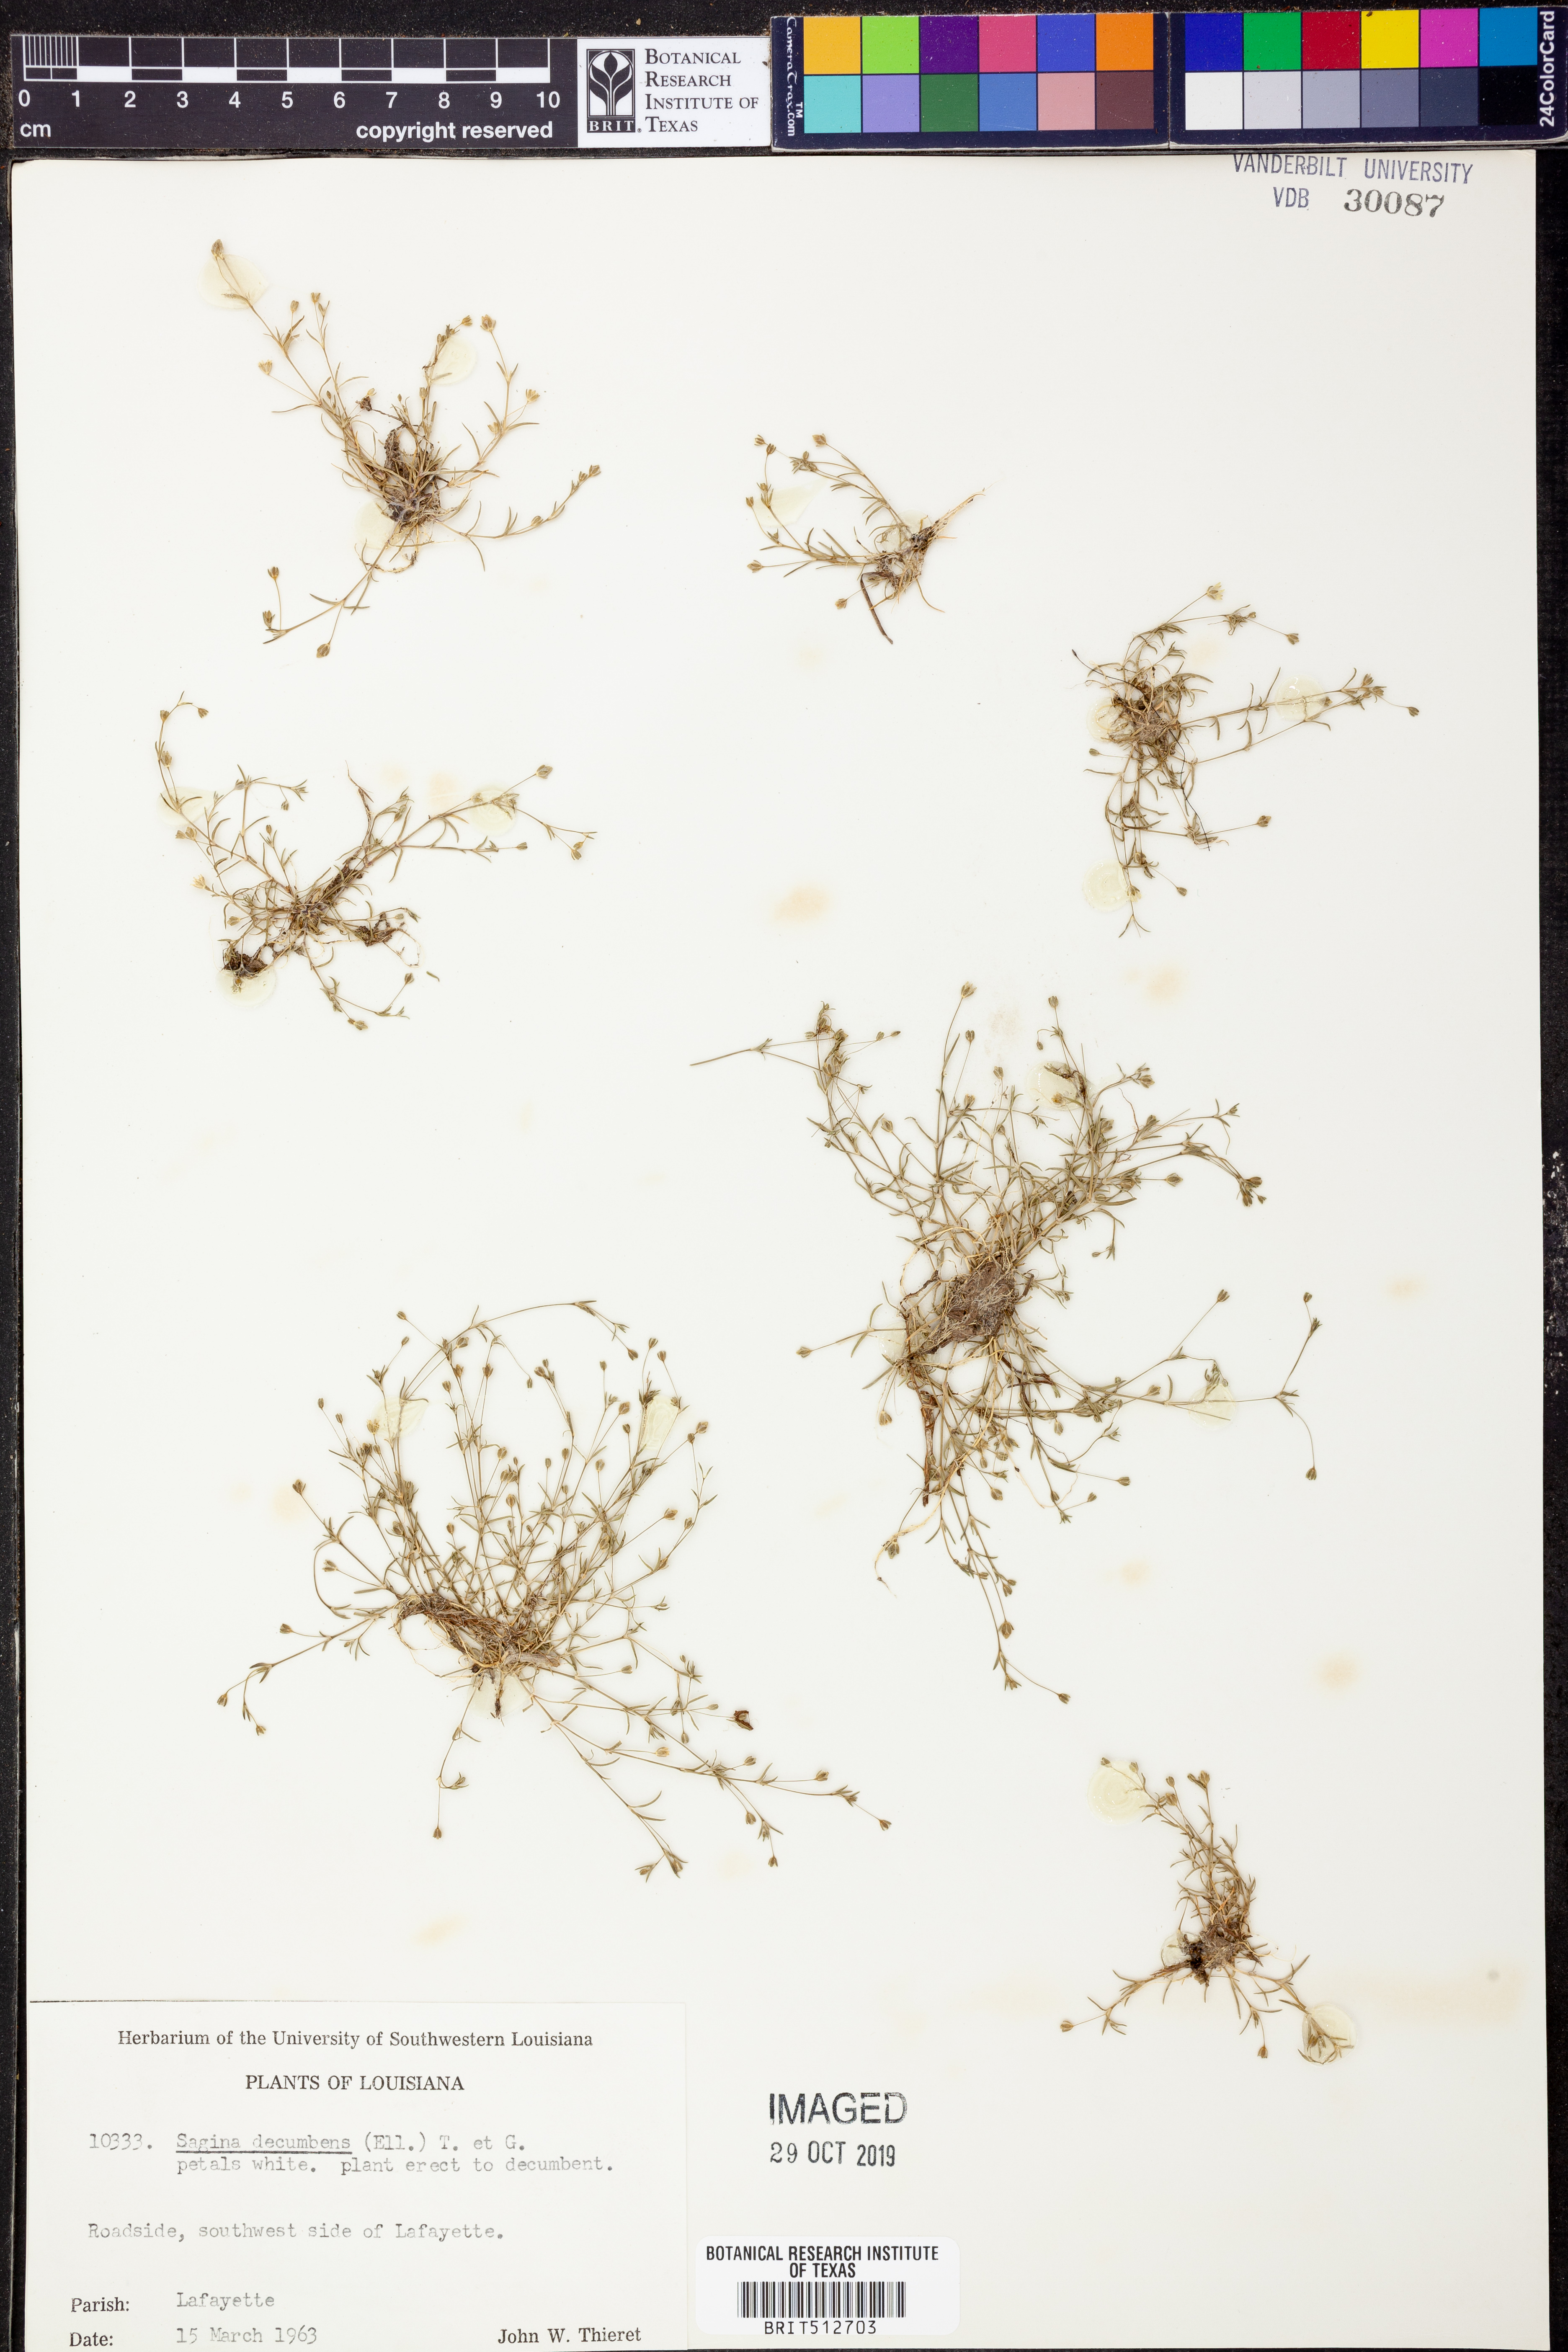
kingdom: Plantae
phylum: Tracheophyta
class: Magnoliopsida
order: Caryophyllales
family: Caryophyllaceae
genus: Sagina
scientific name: Sagina decumbens
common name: Decumbent pearlwort
